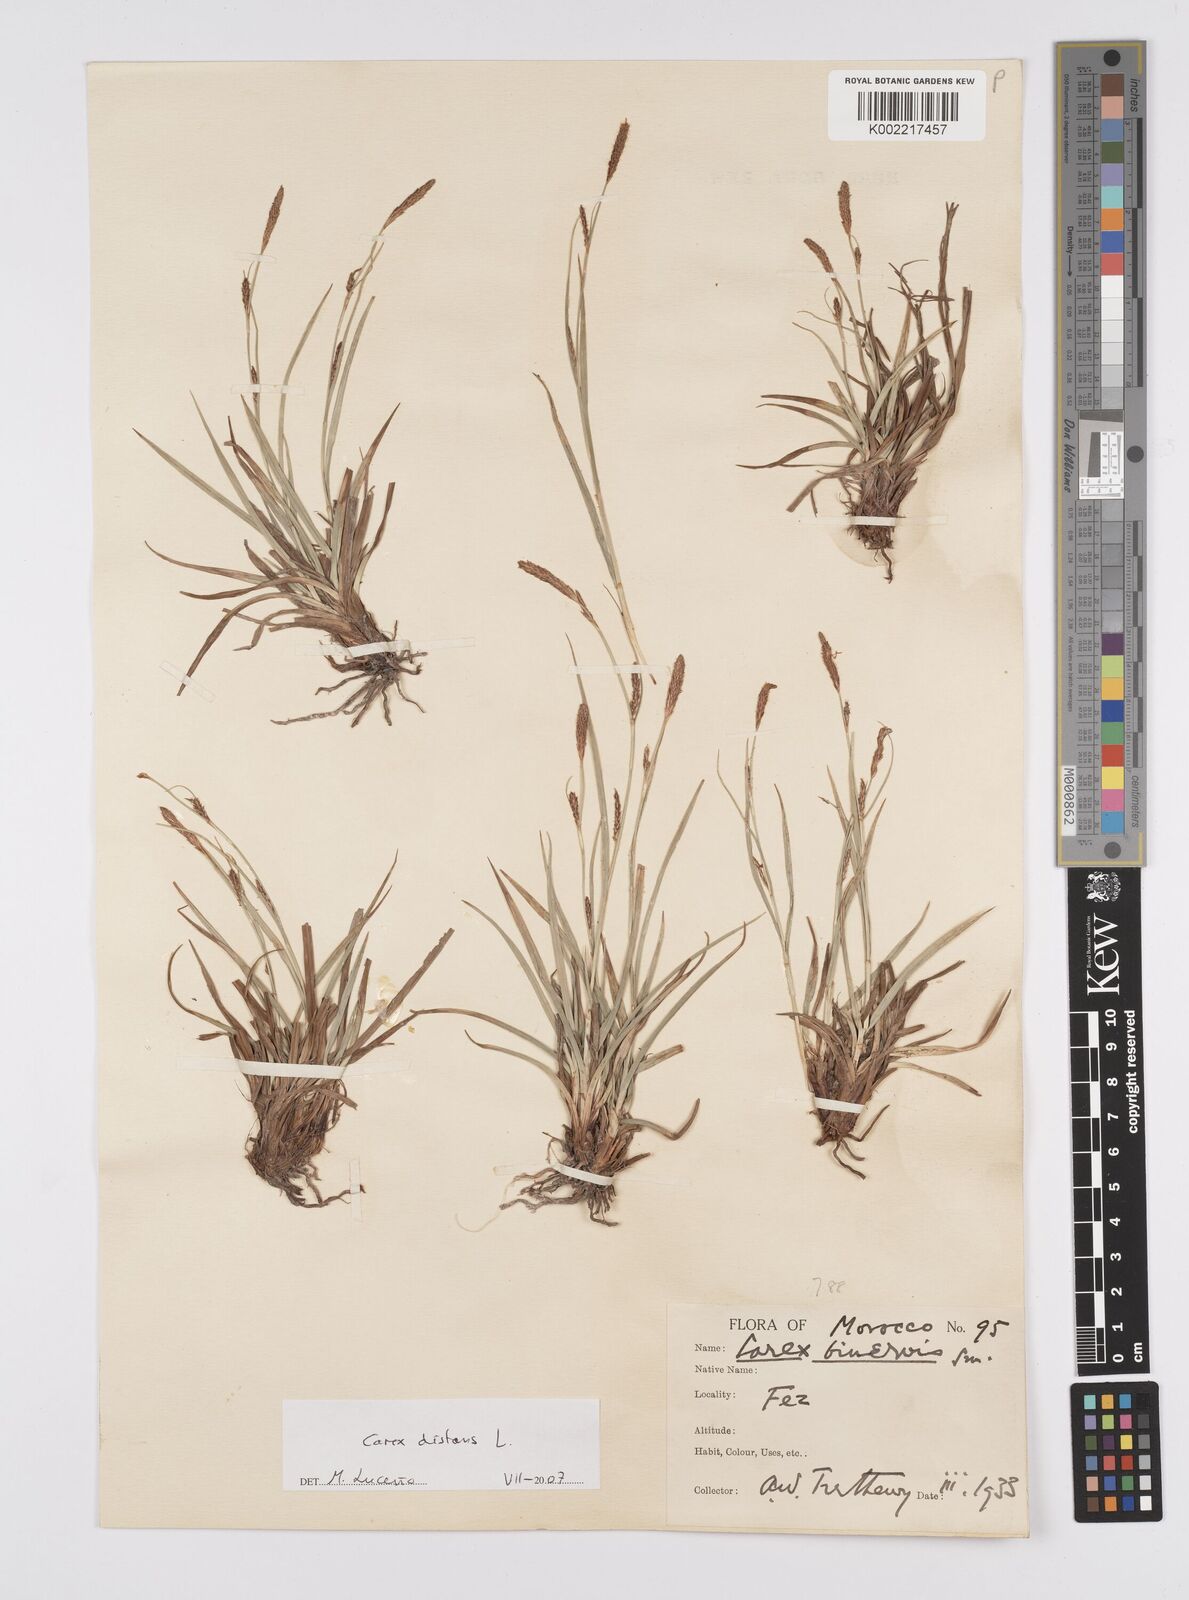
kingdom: Plantae
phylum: Tracheophyta
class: Liliopsida
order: Poales
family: Cyperaceae
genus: Carex
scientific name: Carex distans
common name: Distant sedge
